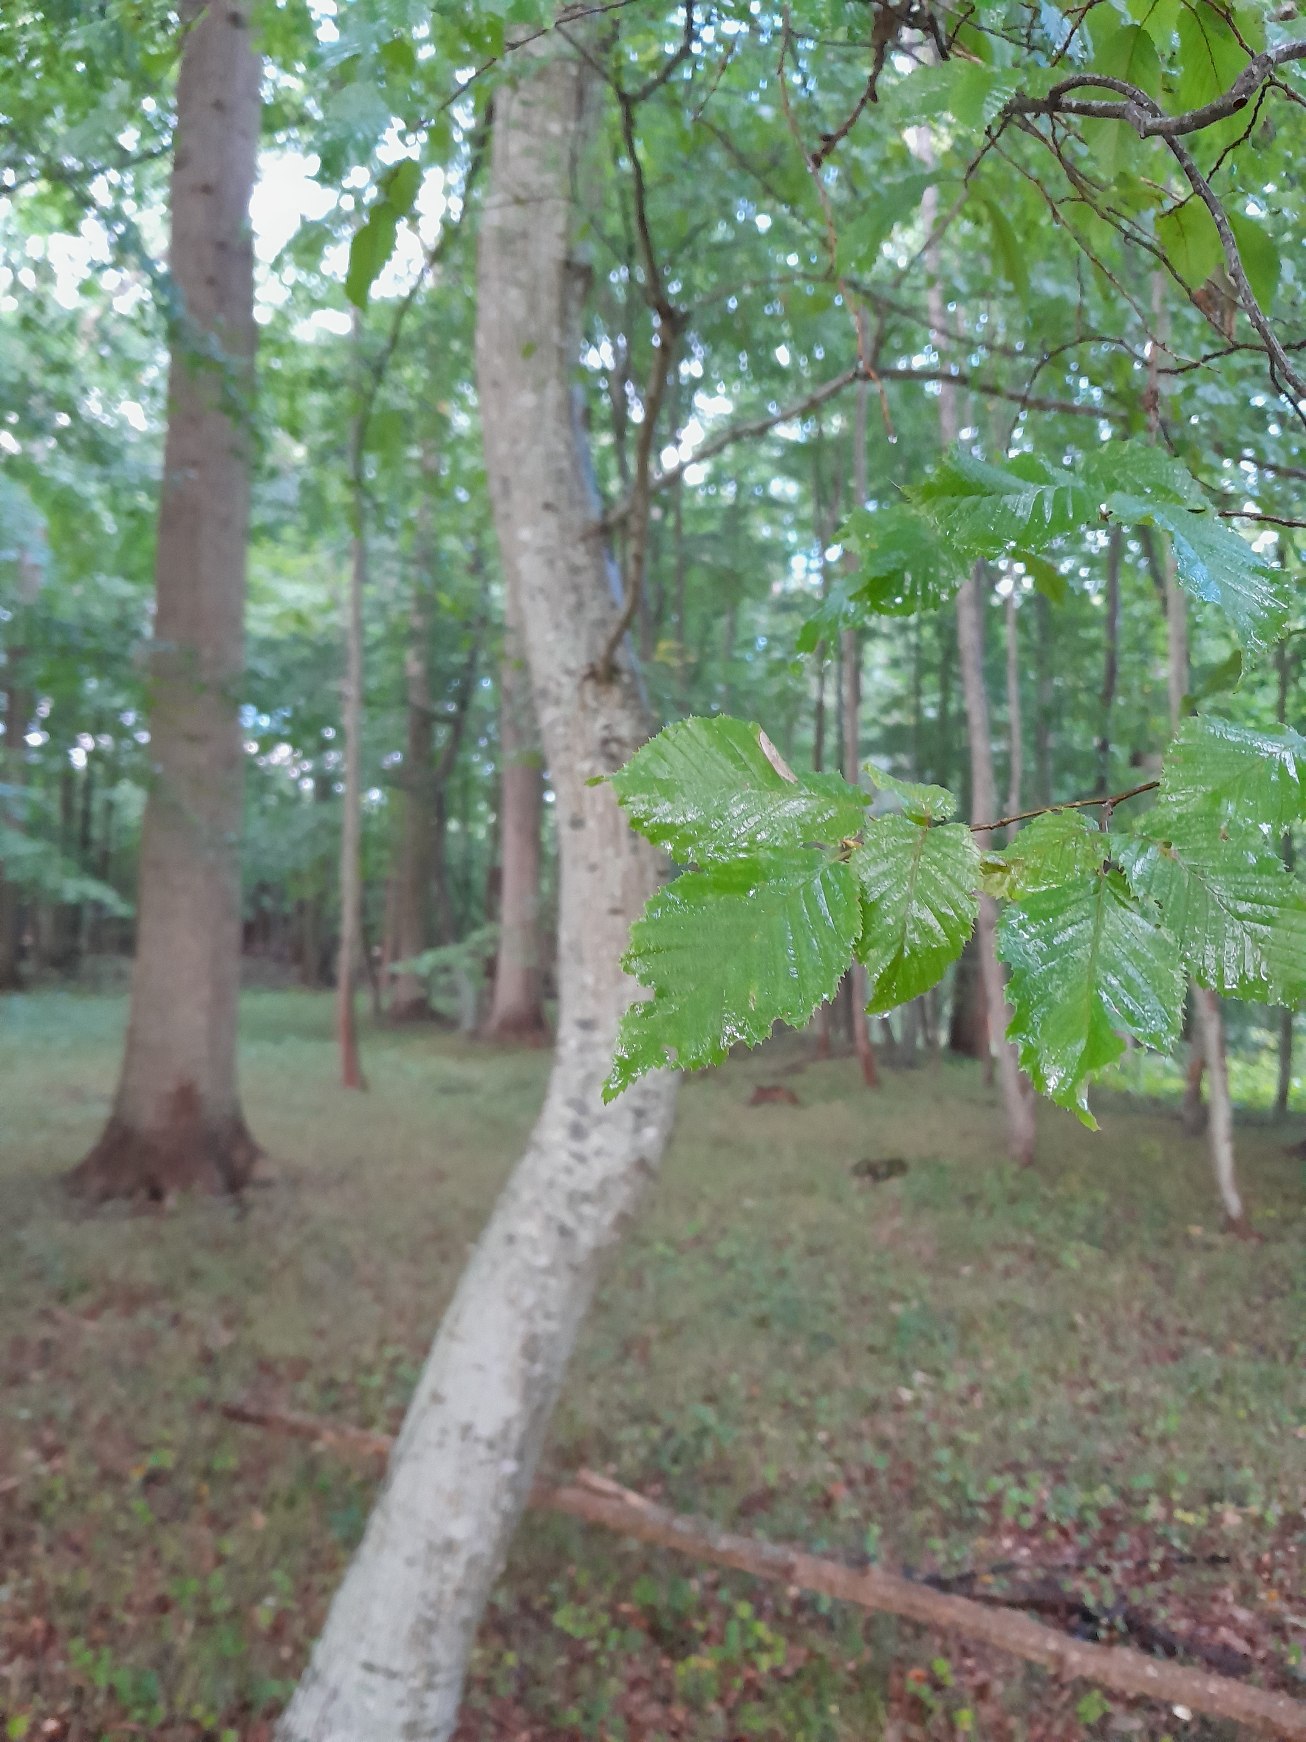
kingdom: Plantae
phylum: Tracheophyta
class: Magnoliopsida
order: Fagales
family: Betulaceae
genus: Carpinus
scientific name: Carpinus betulus
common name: Avnbøg
